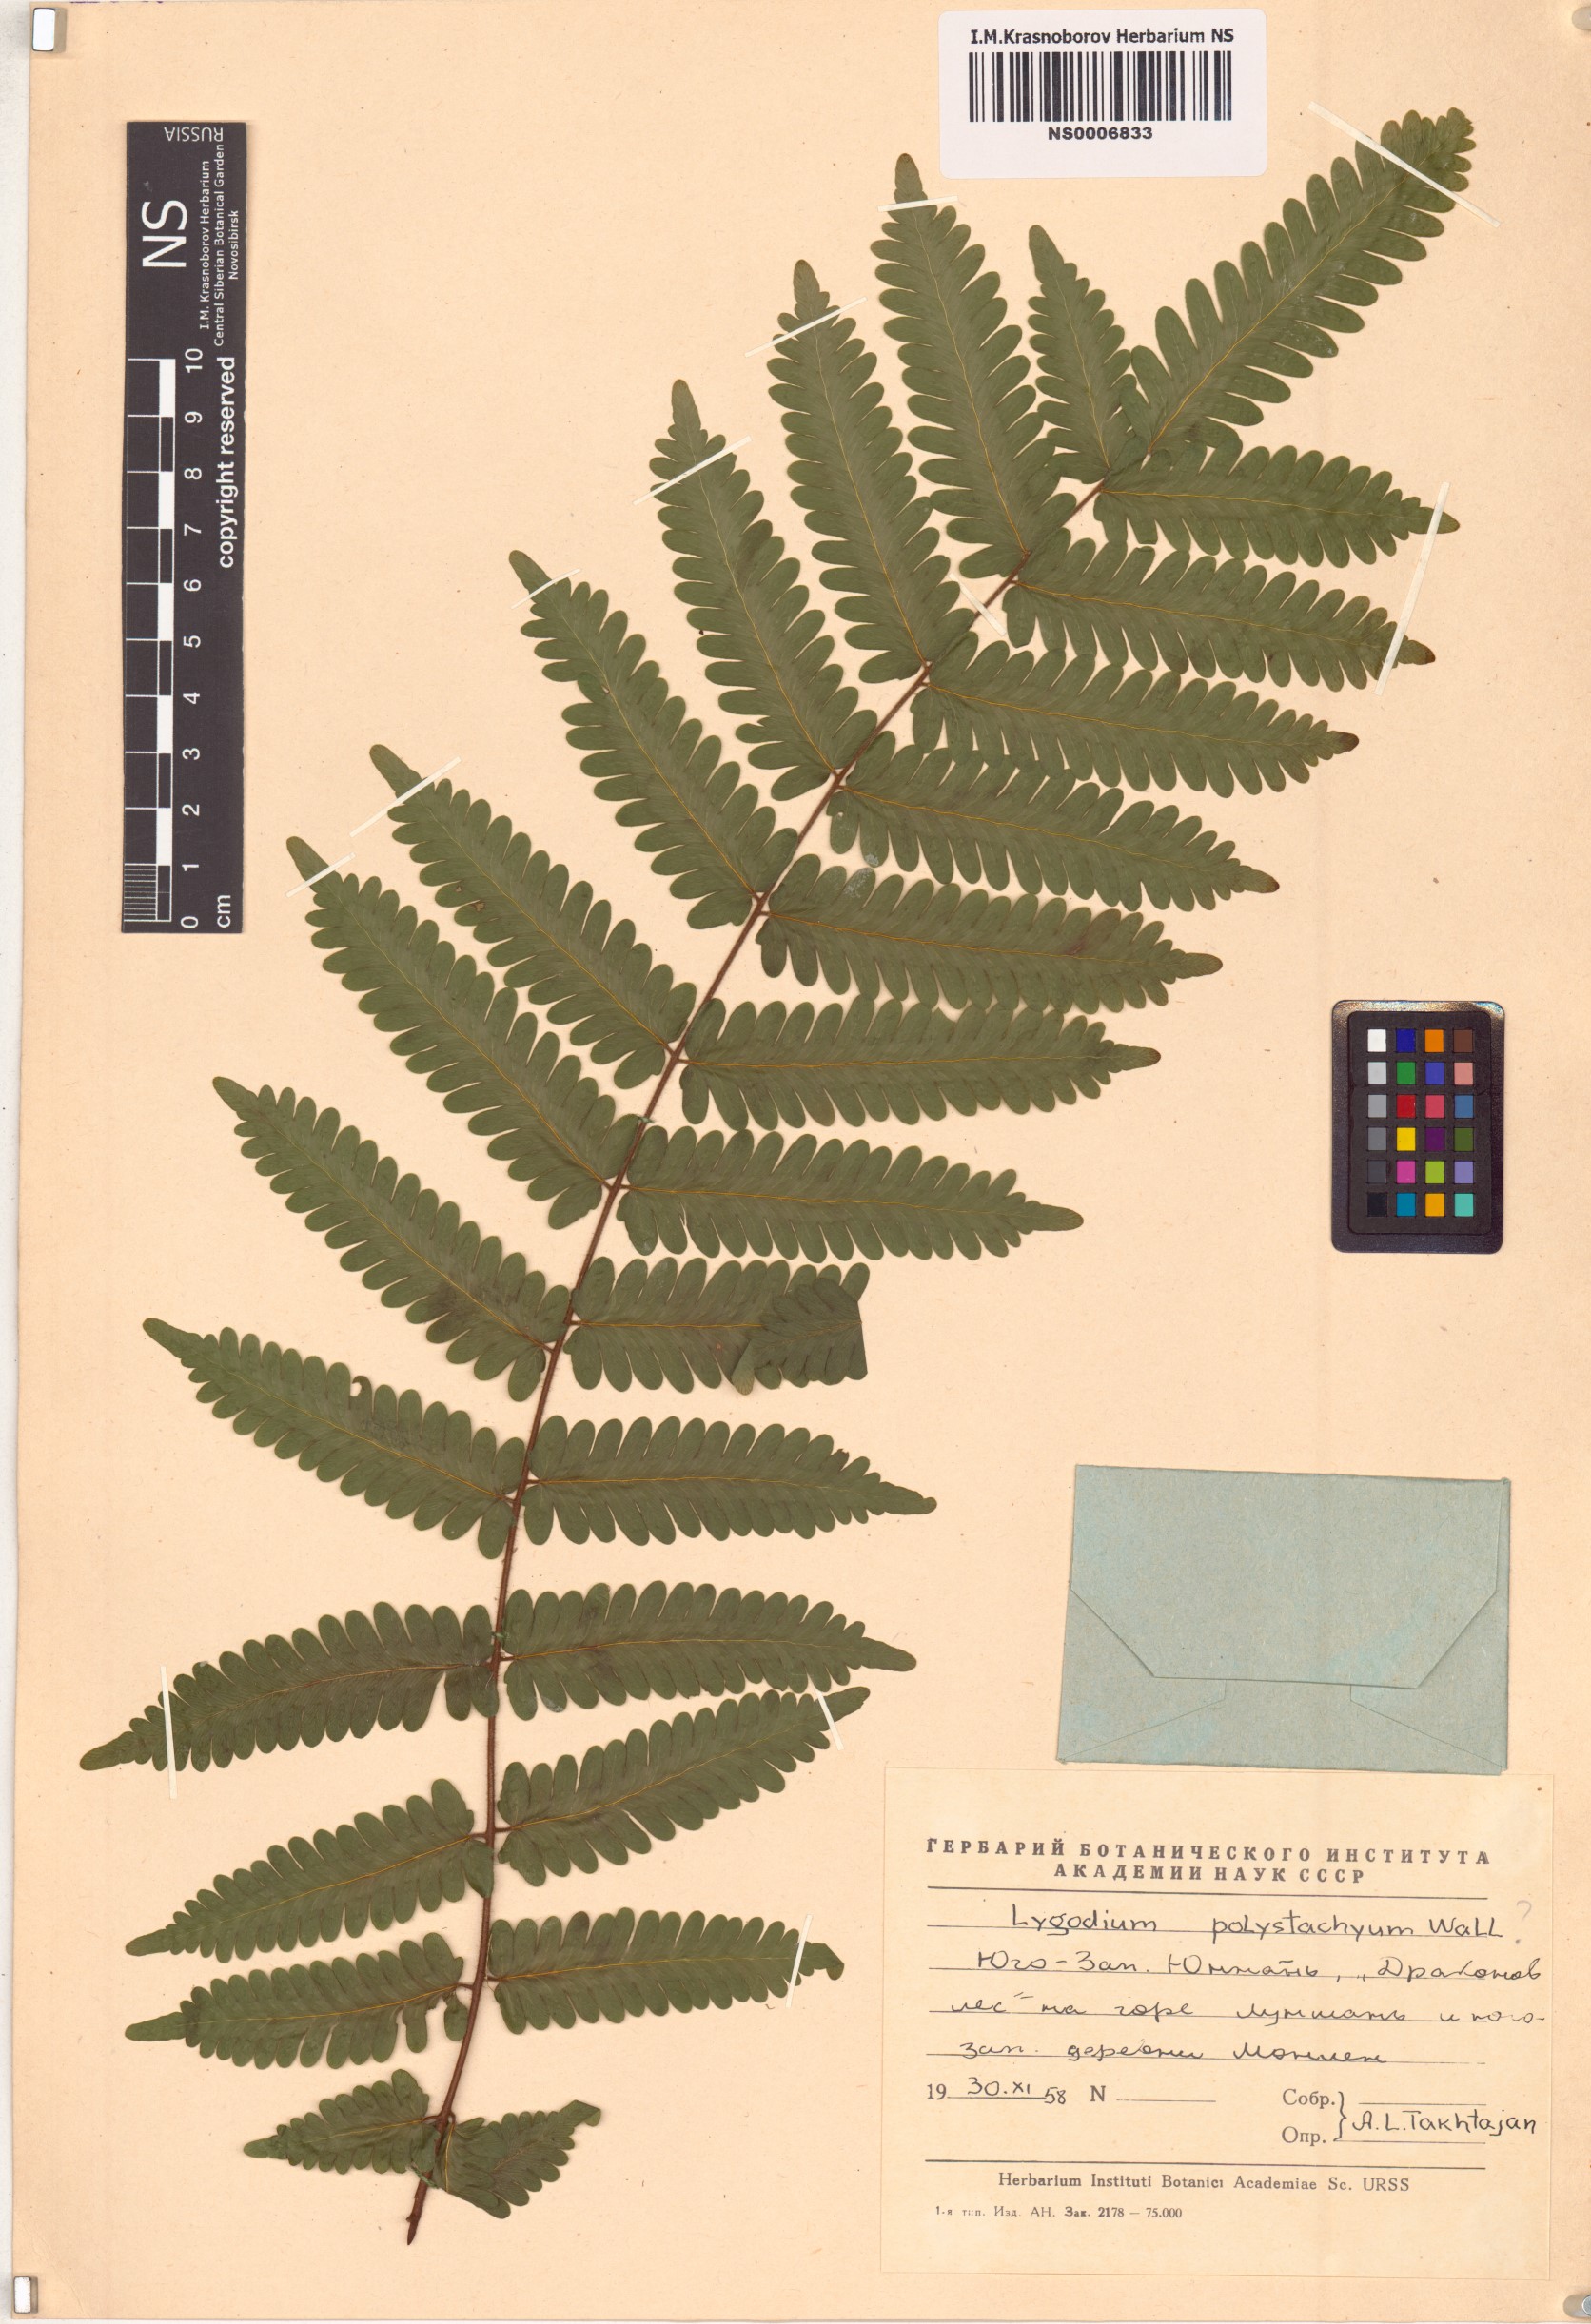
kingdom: Plantae
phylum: Tracheophyta
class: Polypodiopsida
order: Schizaeales
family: Lygodiaceae
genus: Lygodium
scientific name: Lygodium polystachyum
